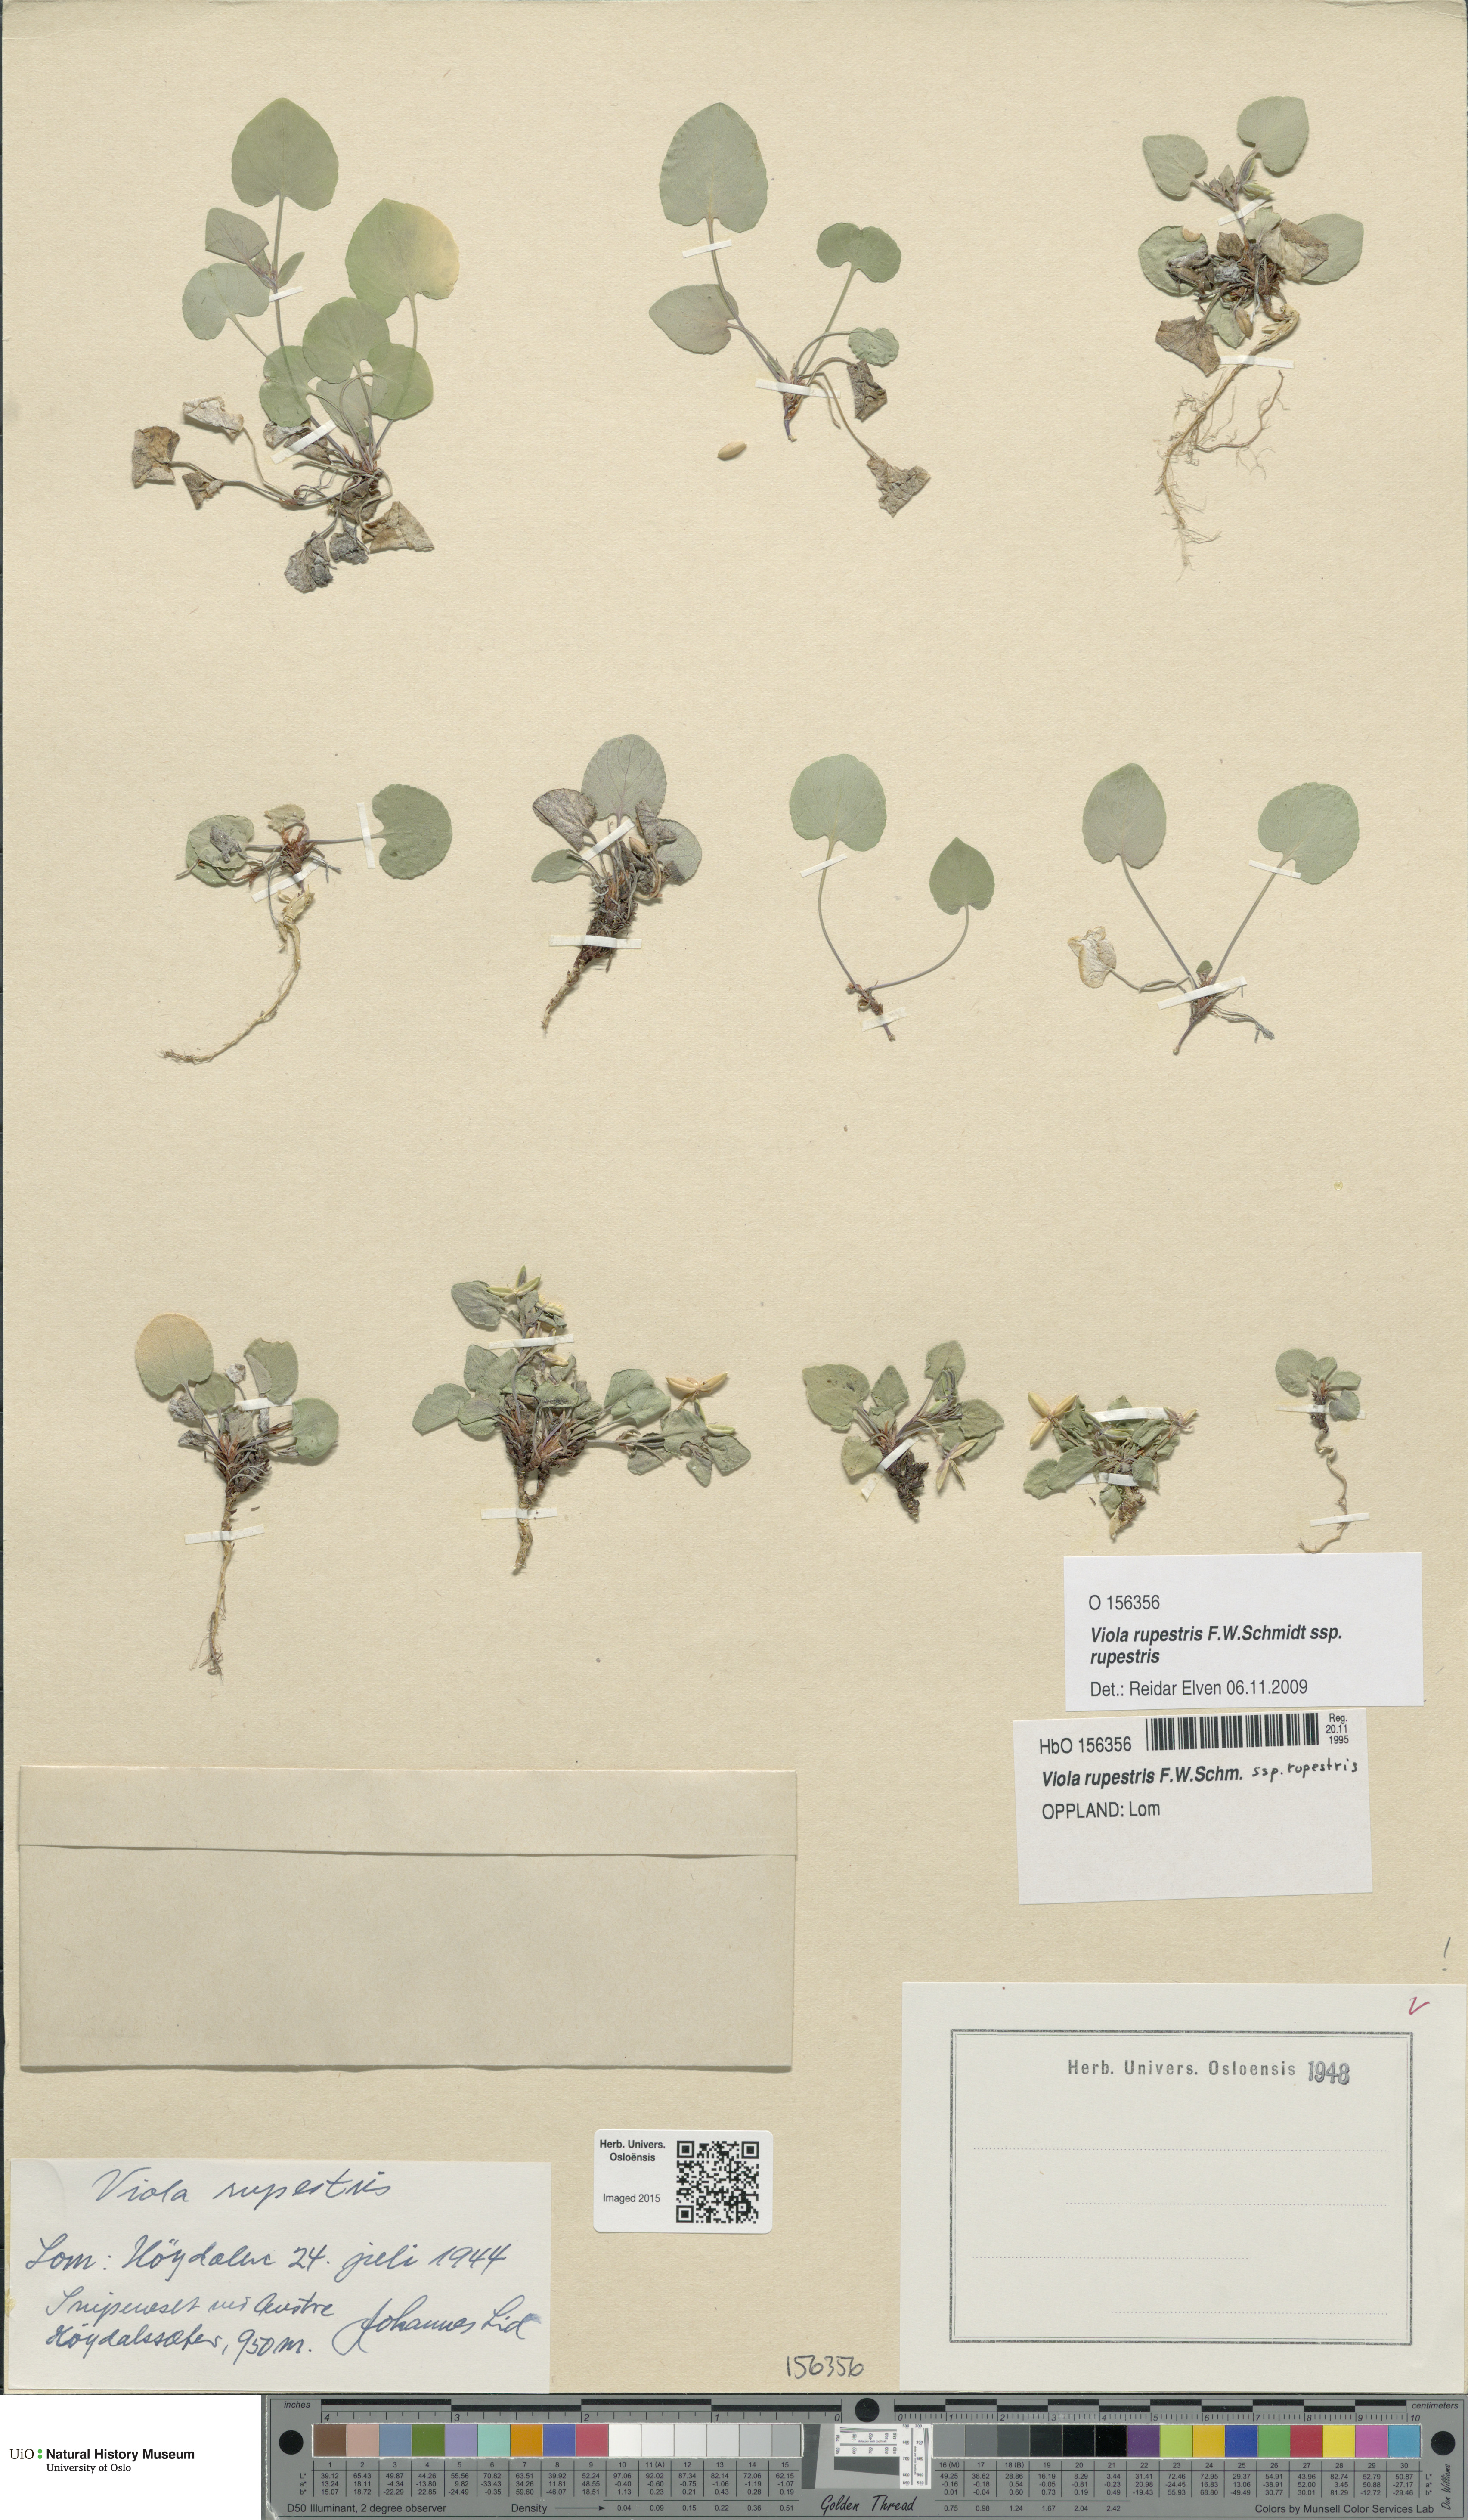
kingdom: Plantae
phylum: Tracheophyta
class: Magnoliopsida
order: Malpighiales
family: Violaceae
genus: Viola
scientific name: Viola rupestris
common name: Teesdale violet
